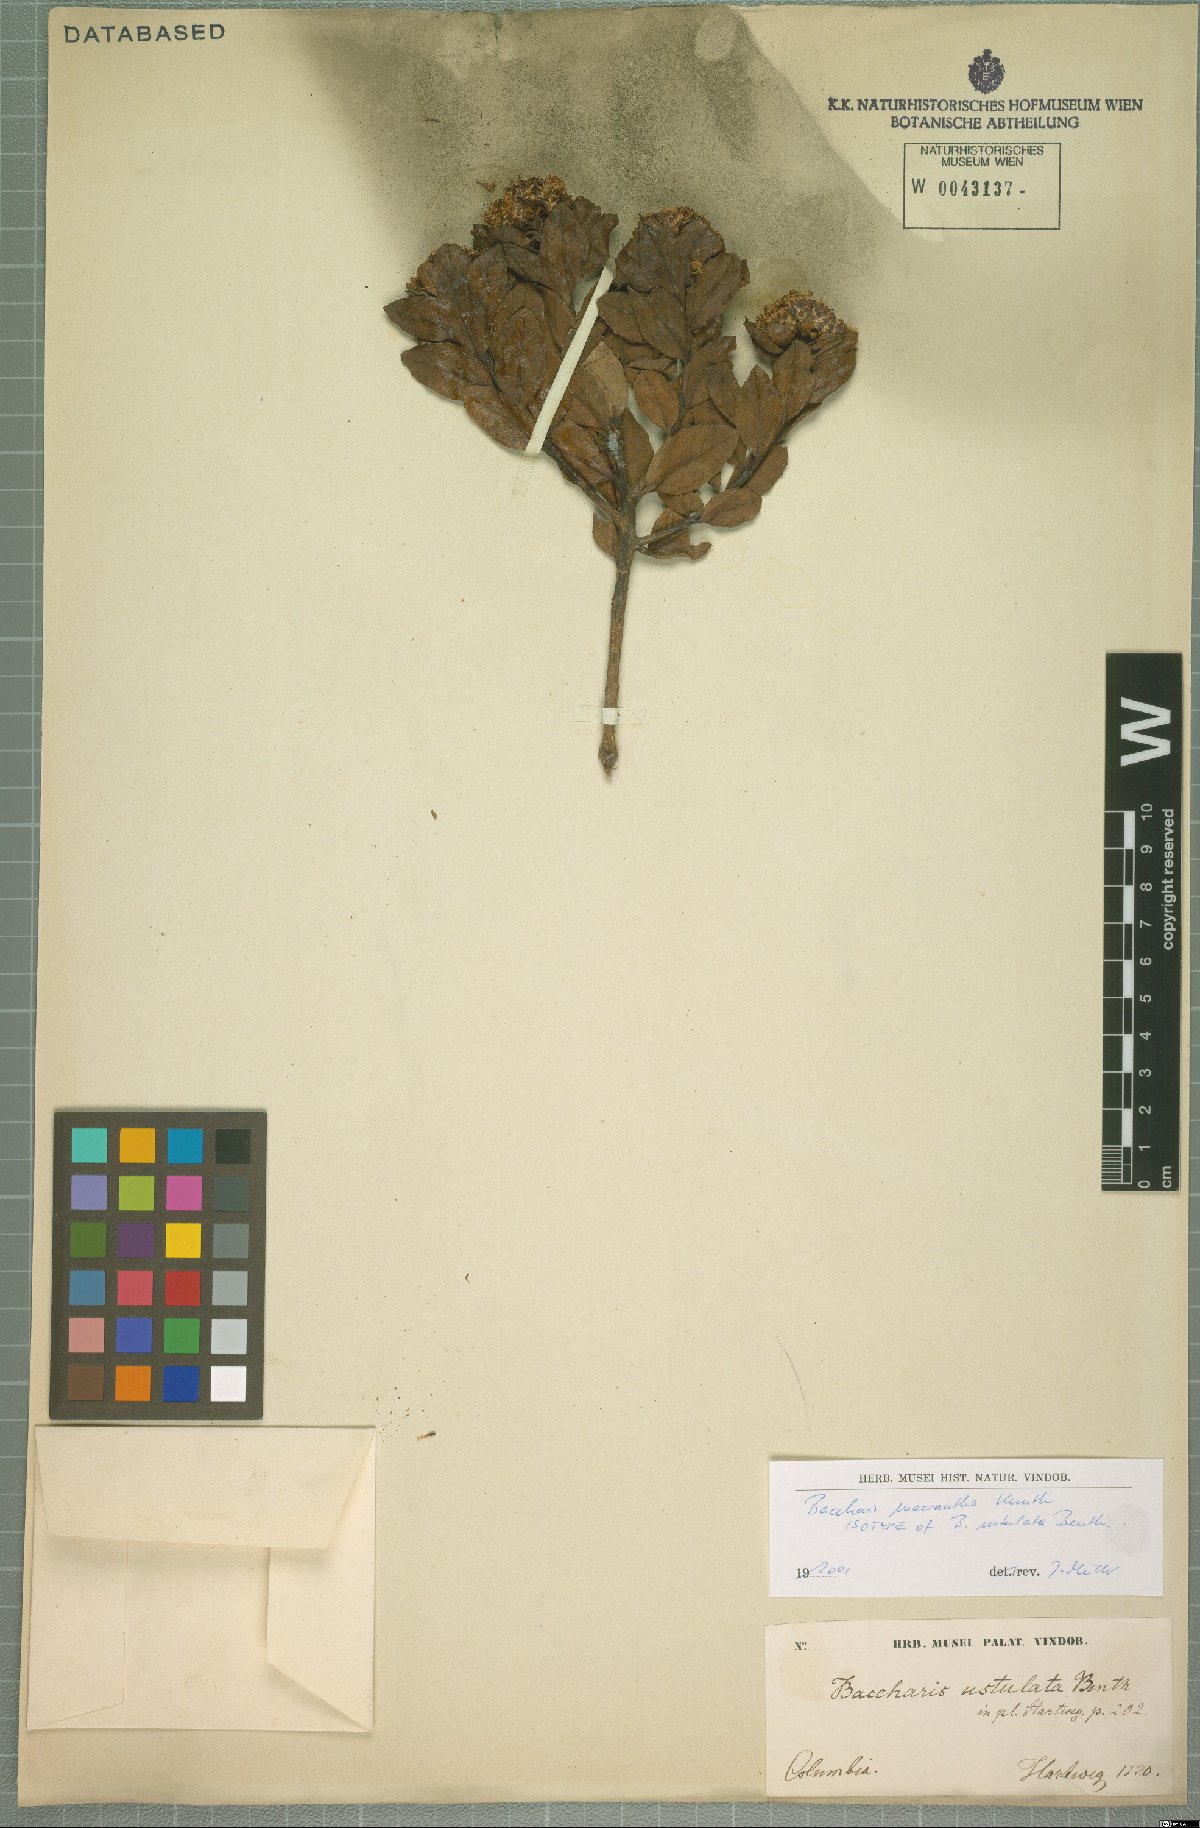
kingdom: Plantae
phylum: Tracheophyta
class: Magnoliopsida
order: Asterales
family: Asteraceae
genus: Baccharis
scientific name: Baccharis macrantha
